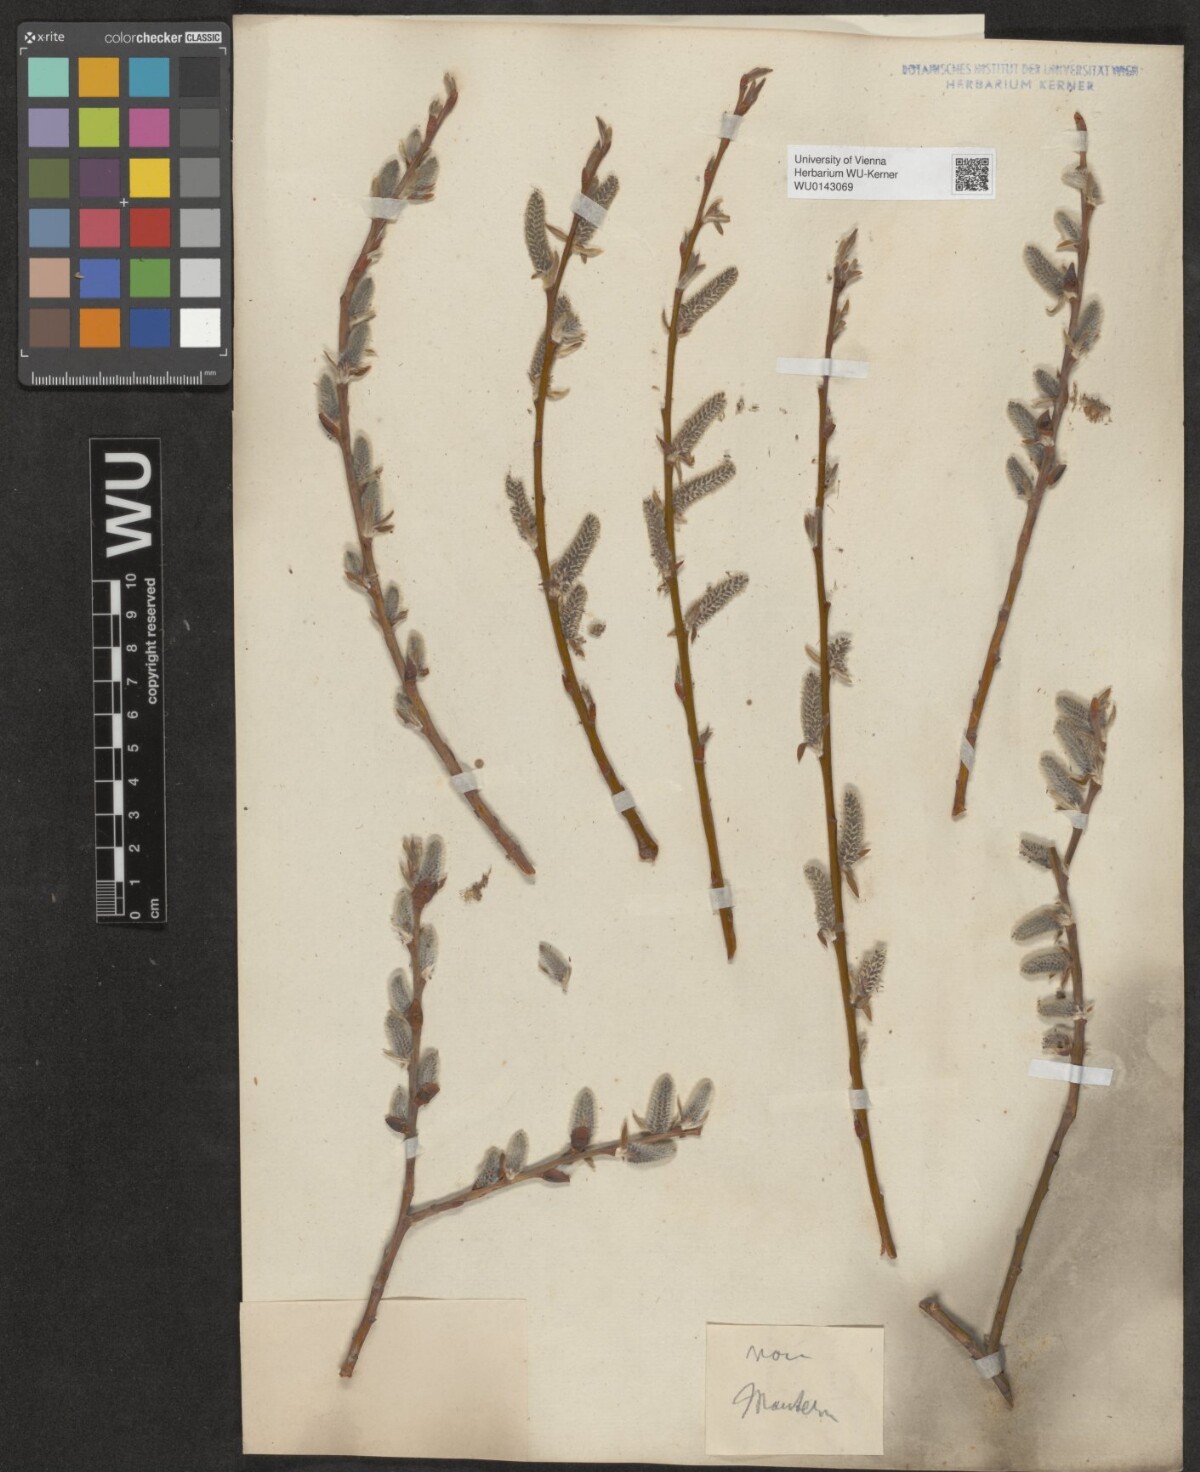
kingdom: Plantae
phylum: Tracheophyta
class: Magnoliopsida
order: Malpighiales
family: Salicaceae
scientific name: Salicaceae
